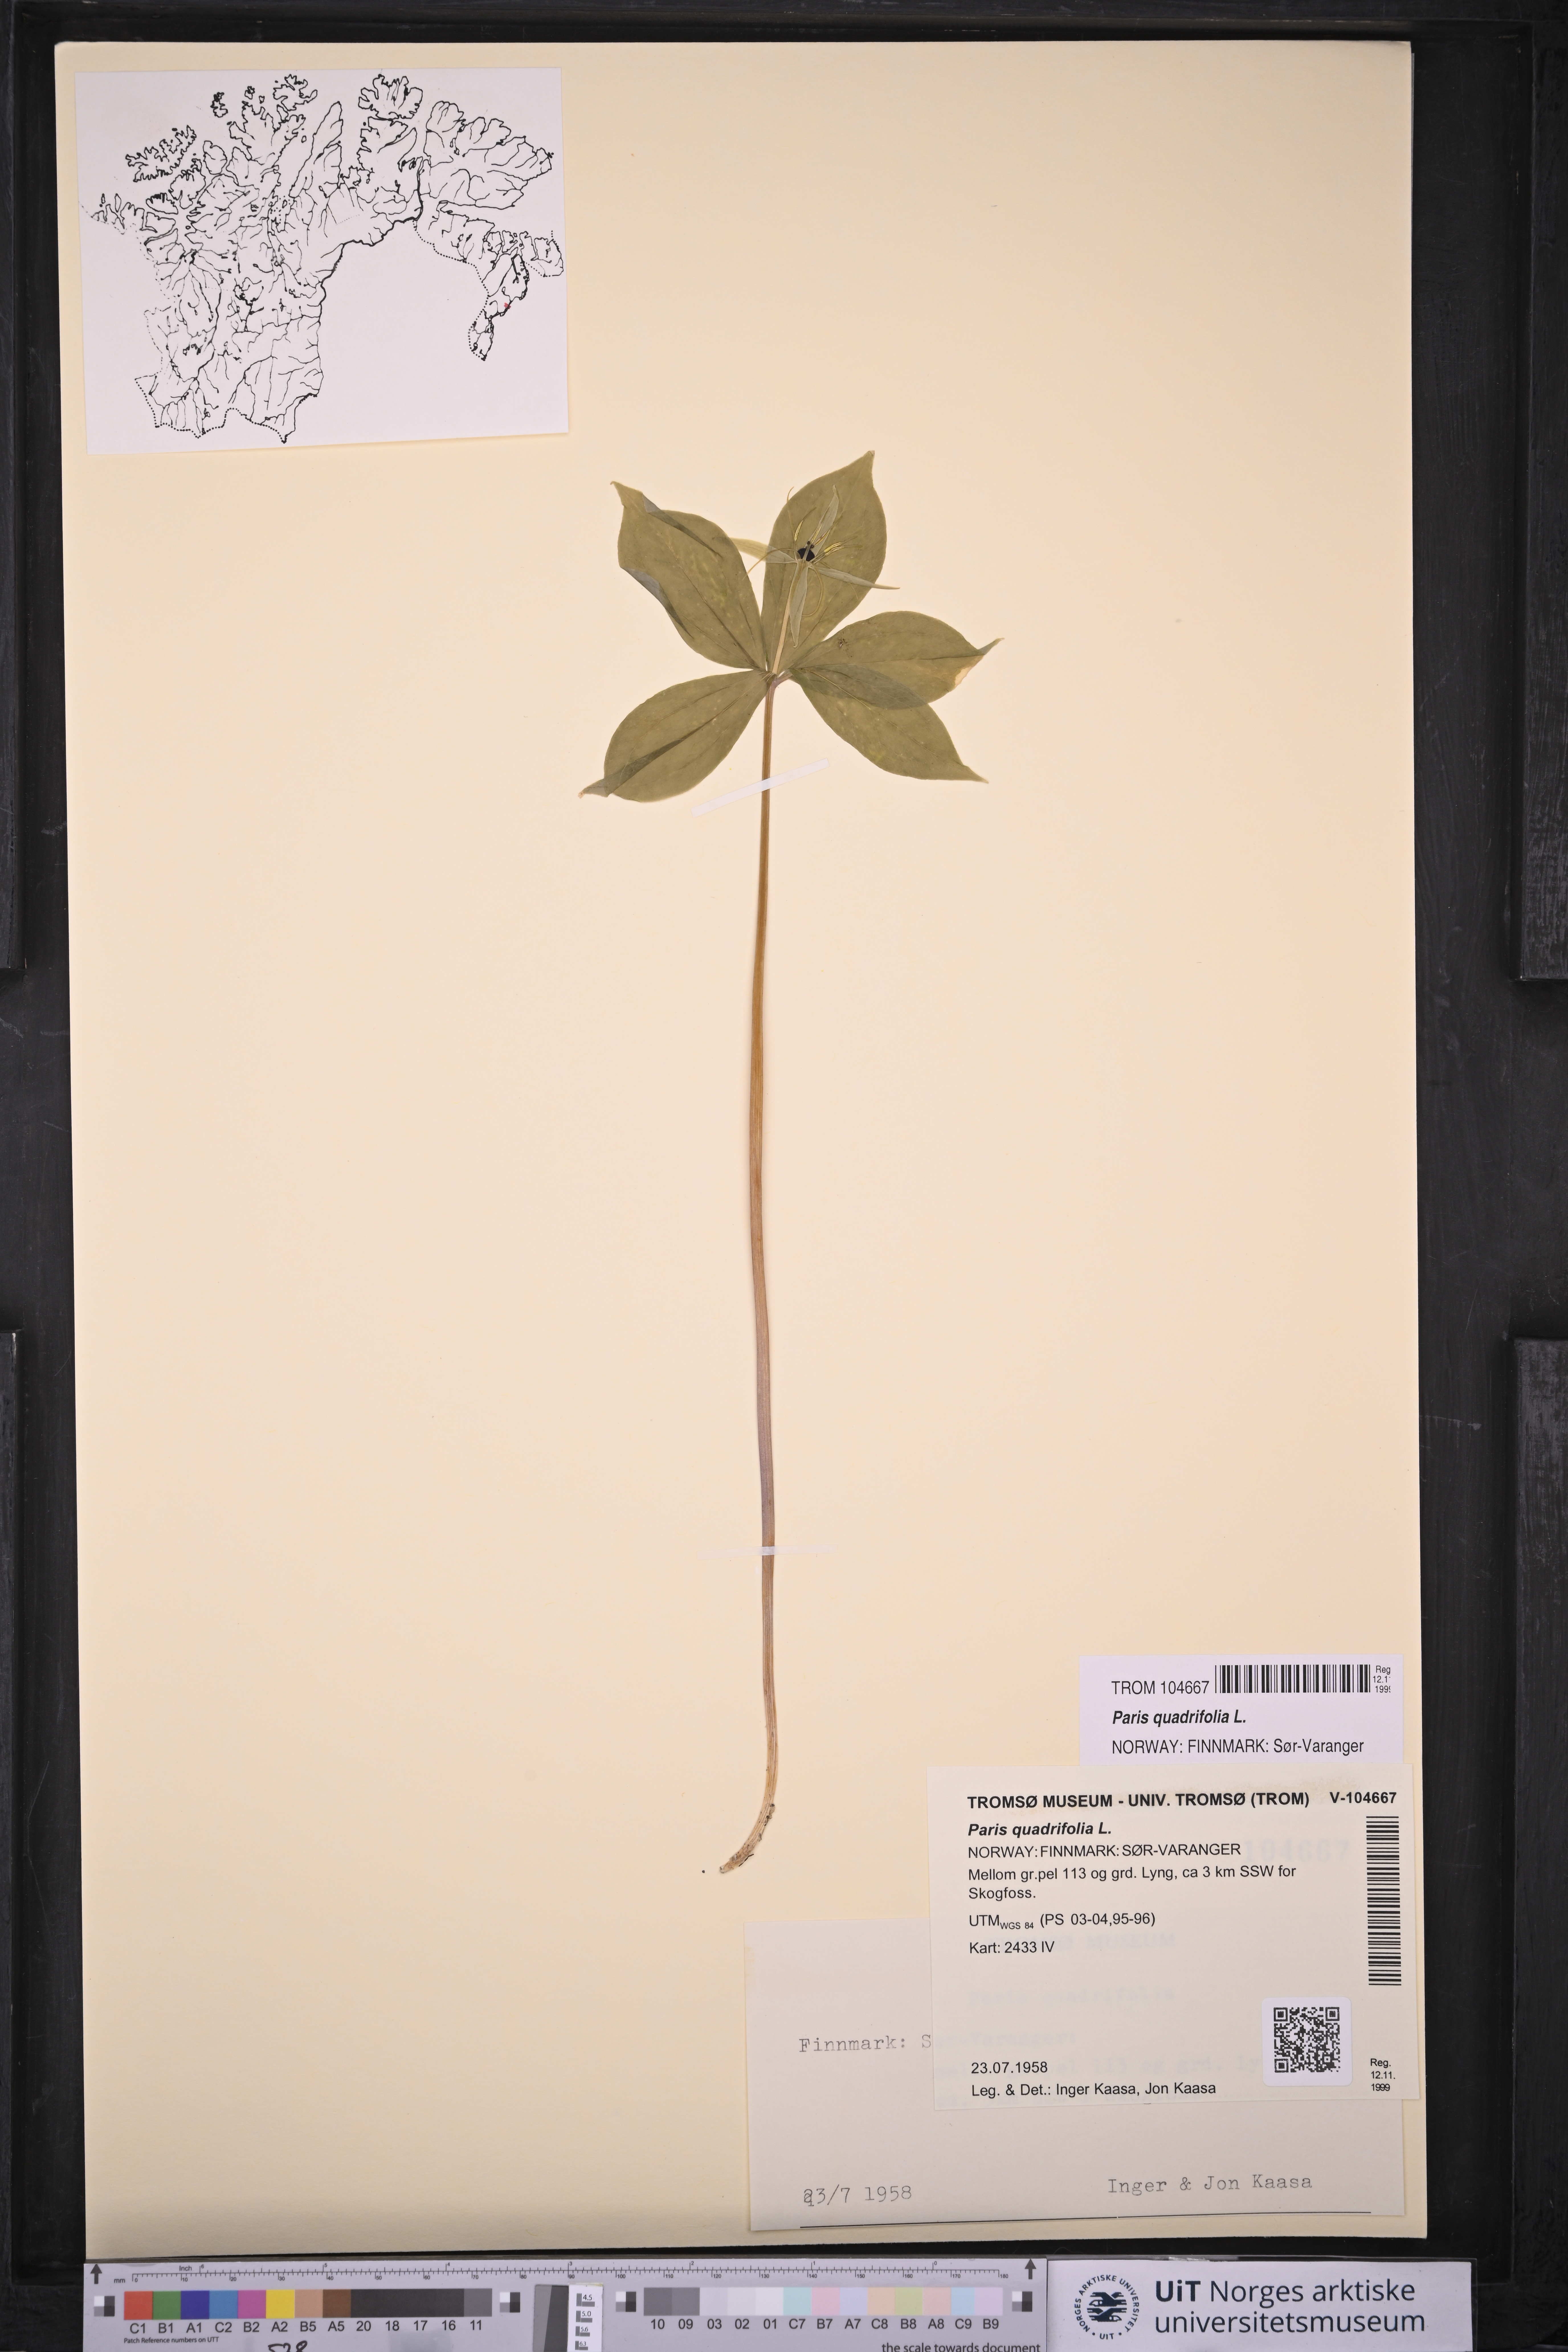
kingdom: Plantae
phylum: Tracheophyta
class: Liliopsida
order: Liliales
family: Melanthiaceae
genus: Paris
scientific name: Paris quadrifolia
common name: Herb-paris
